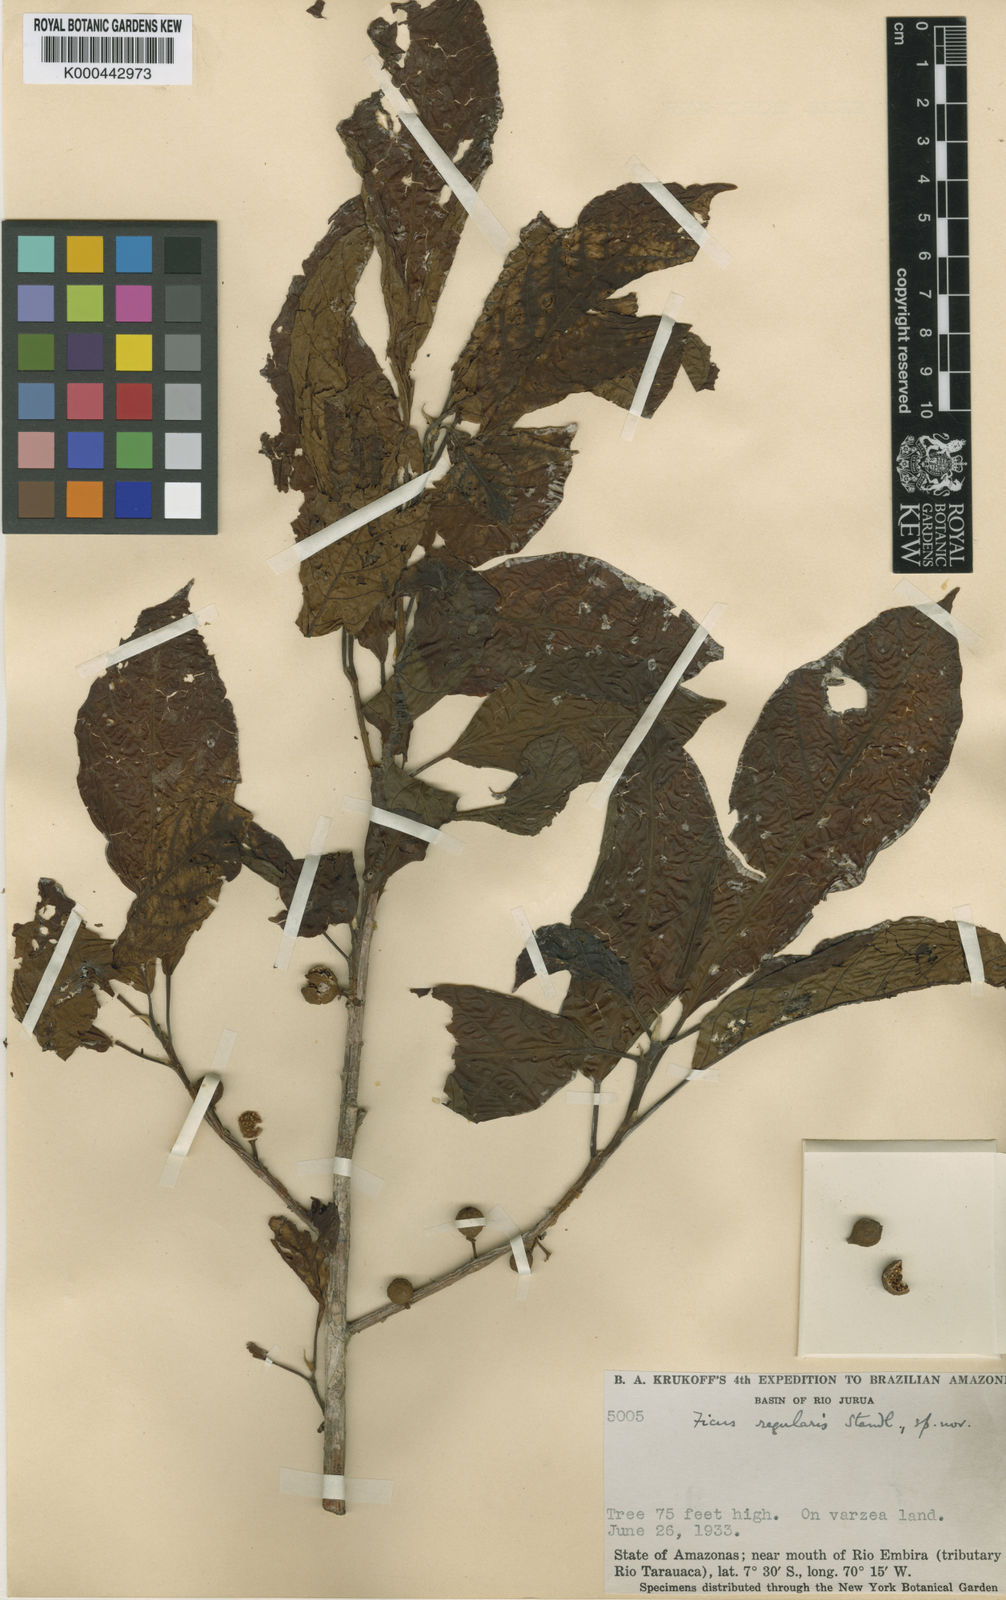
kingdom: Plantae
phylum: Tracheophyta
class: Magnoliopsida
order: Rosales
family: Moraceae
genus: Ficus
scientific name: Ficus trigona
